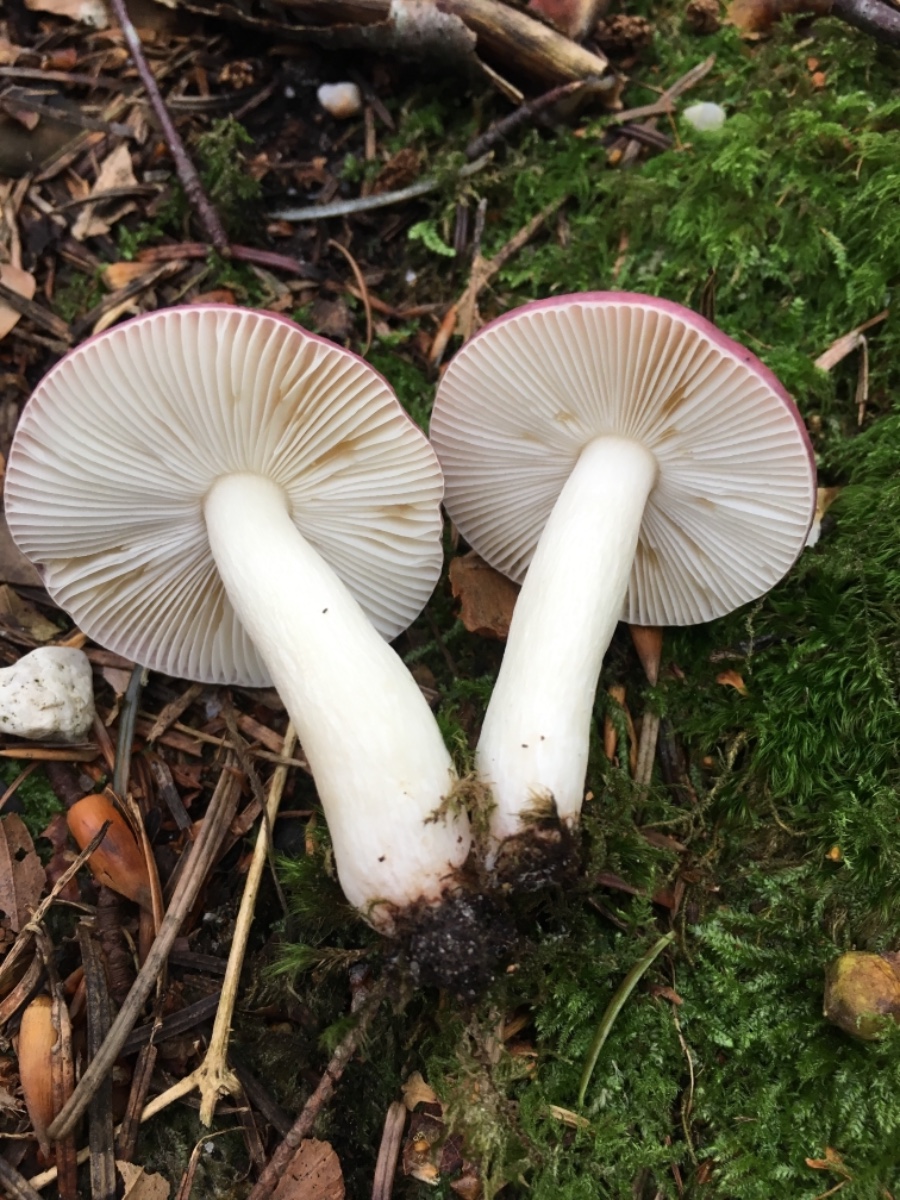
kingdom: Fungi
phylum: Basidiomycota
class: Agaricomycetes
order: Russulales
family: Russulaceae
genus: Russula
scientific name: Russula pelargonia
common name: pelargonie-skørhat
